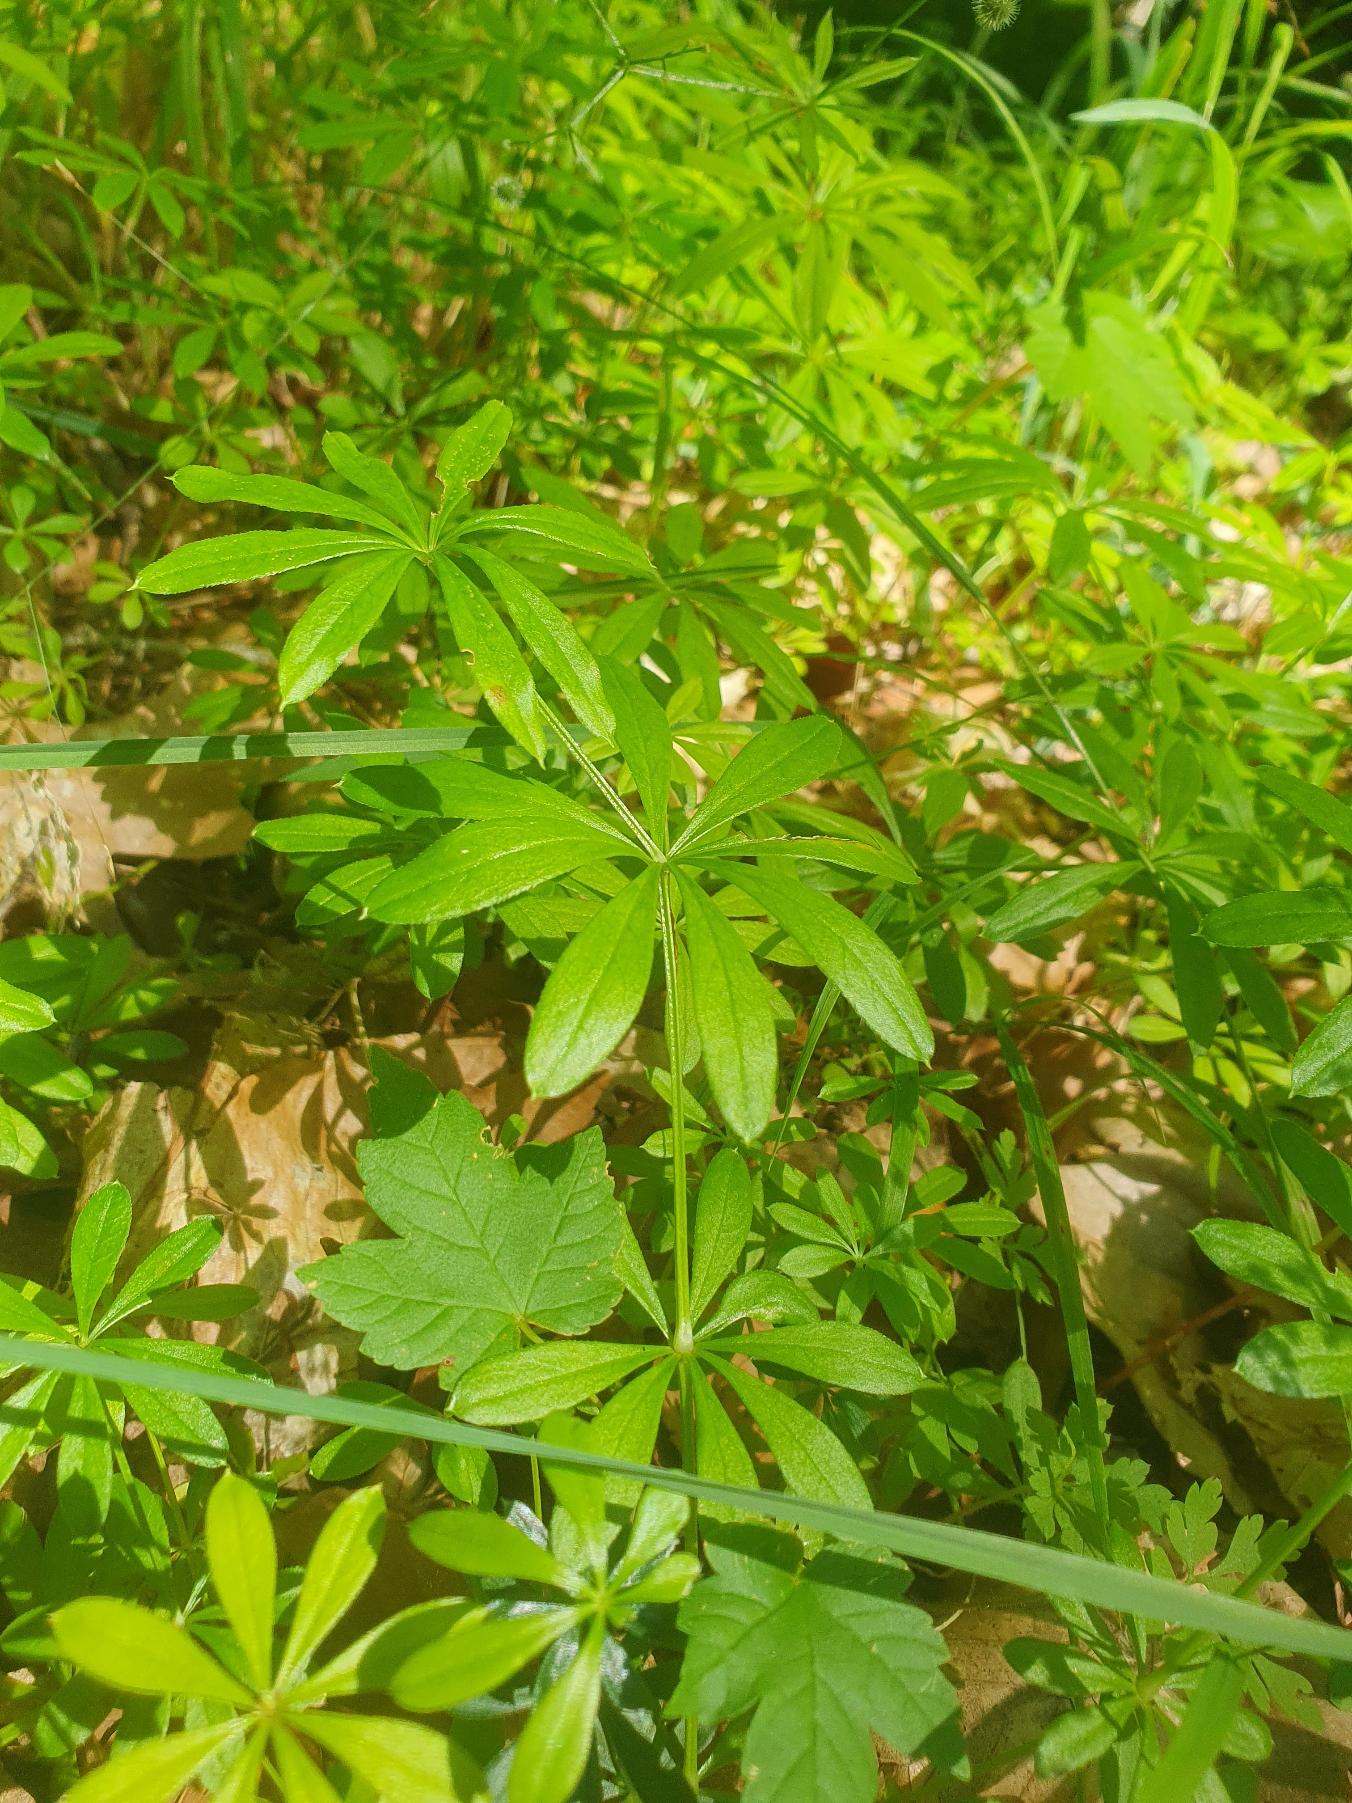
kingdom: Plantae
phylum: Tracheophyta
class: Magnoliopsida
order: Gentianales
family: Rubiaceae
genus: Galium
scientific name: Galium odoratum
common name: Skovmærke
